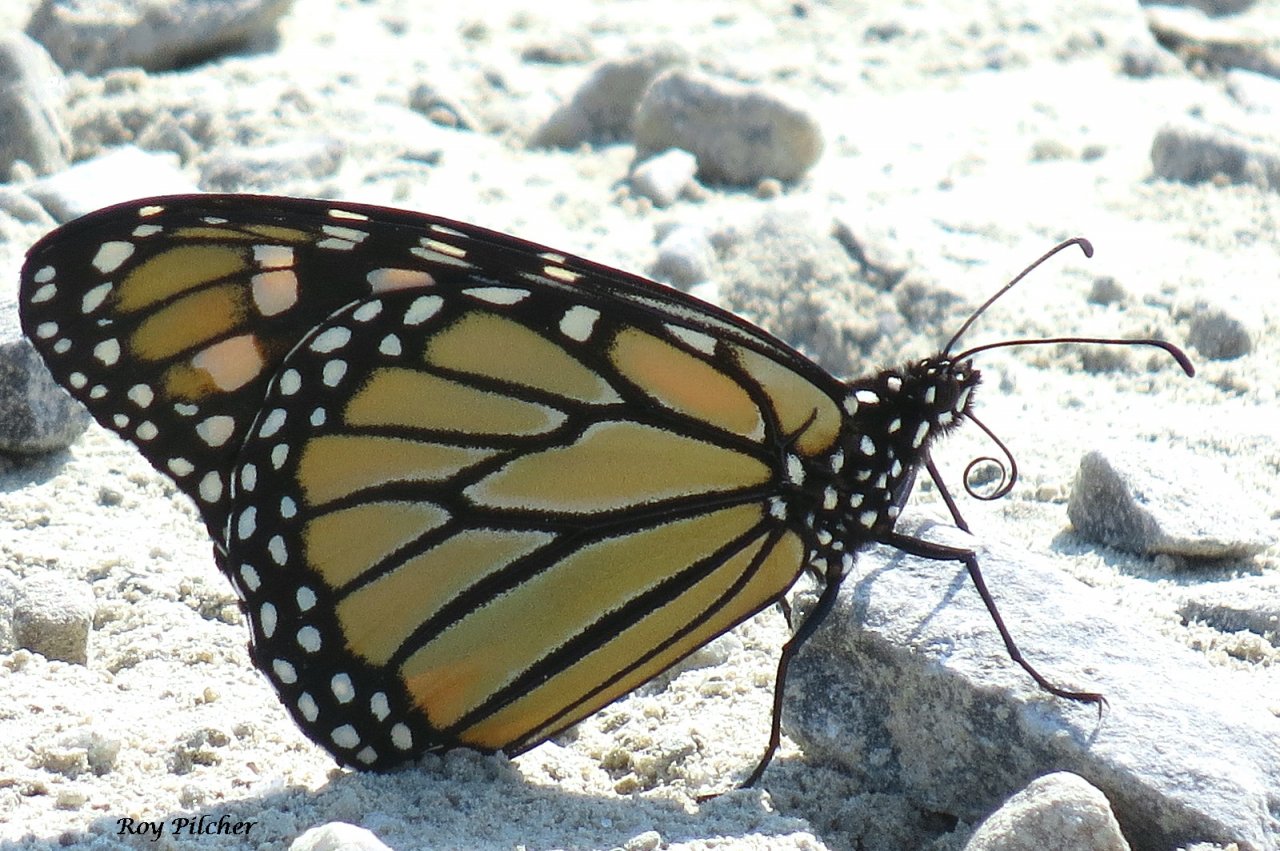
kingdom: Animalia
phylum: Arthropoda
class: Insecta
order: Lepidoptera
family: Nymphalidae
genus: Danaus
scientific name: Danaus plexippus
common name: Monarch
